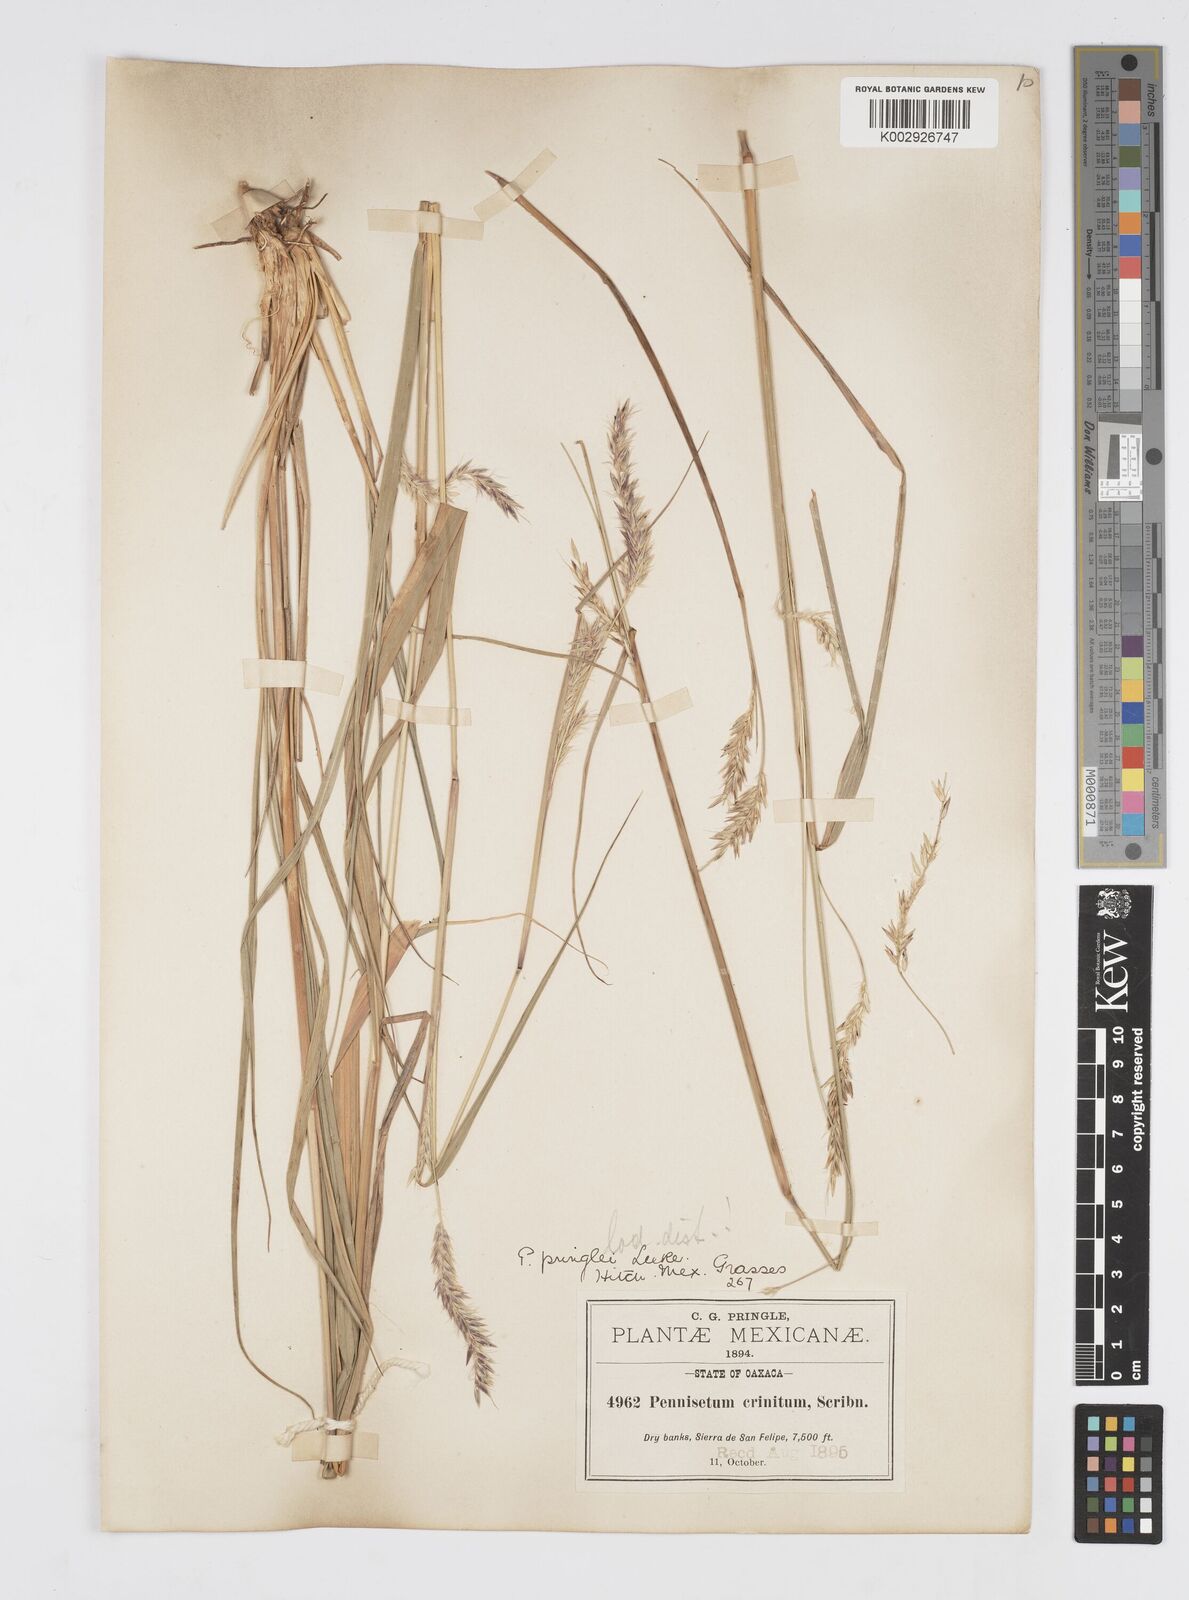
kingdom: Plantae
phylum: Tracheophyta
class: Liliopsida
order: Poales
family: Poaceae
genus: Cenchrus
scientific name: Cenchrus durus
